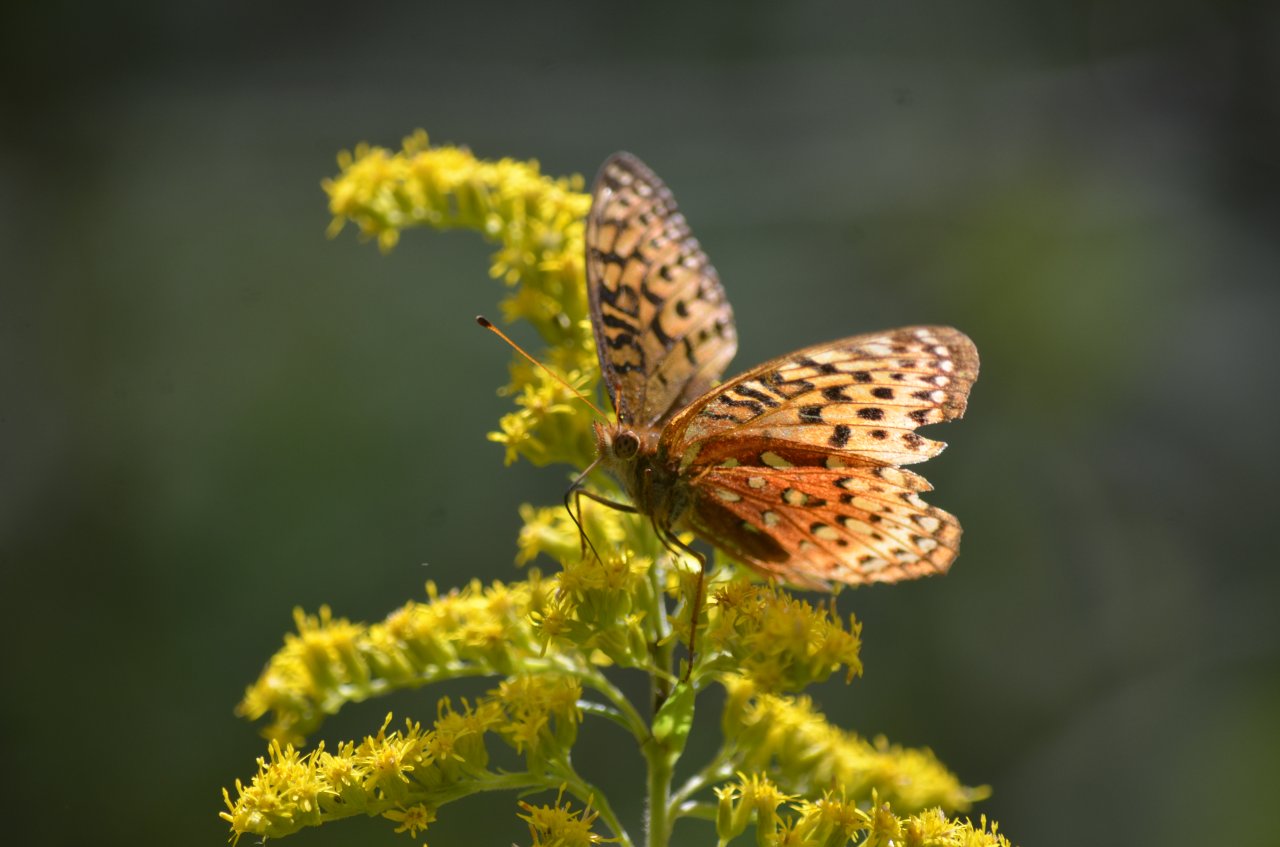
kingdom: Animalia
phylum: Arthropoda
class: Insecta
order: Lepidoptera
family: Nymphalidae
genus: Speyeria
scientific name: Speyeria aphrodite
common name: Aphrodite Fritillary
